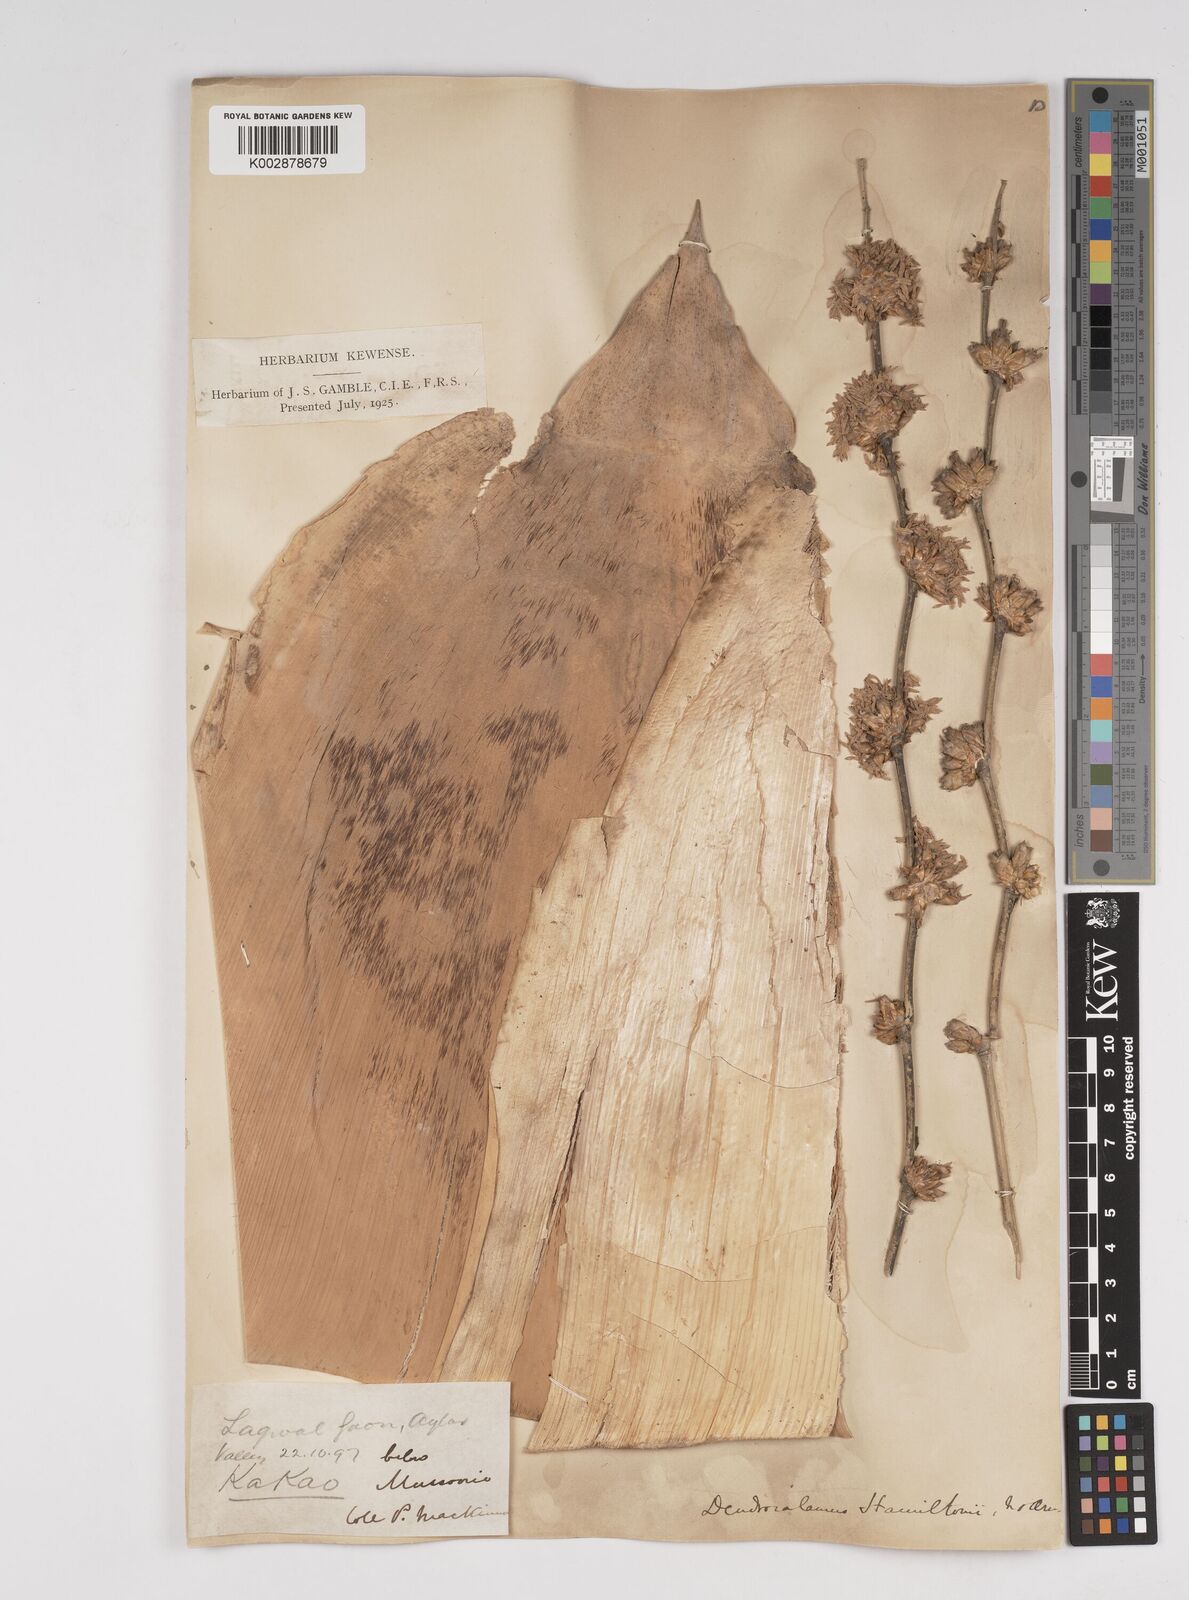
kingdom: Plantae
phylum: Tracheophyta
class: Liliopsida
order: Poales
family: Poaceae
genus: Dendrocalamus
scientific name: Dendrocalamus hamiltonii
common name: Tama bamboo
